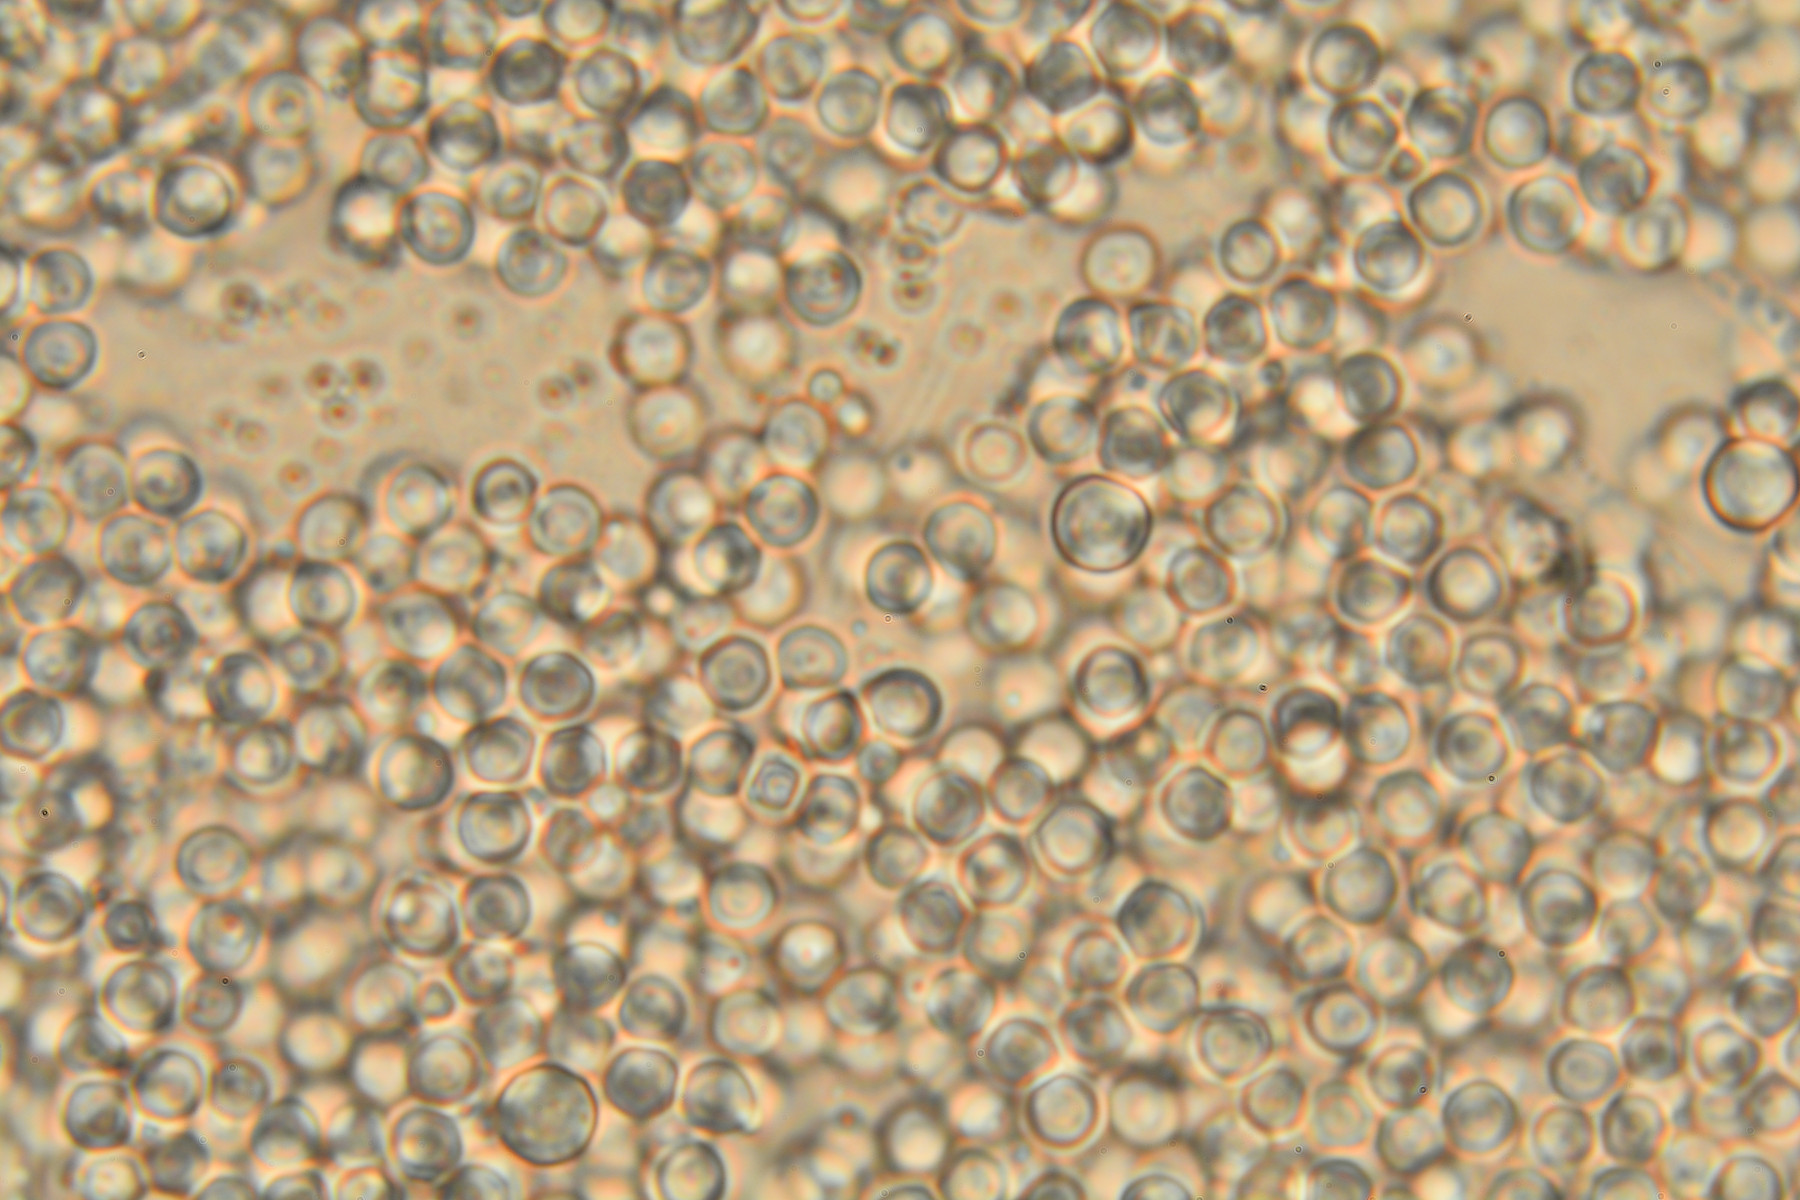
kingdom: Fungi
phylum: Ascomycota
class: Sareomycetes
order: Sareales
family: Sareaceae
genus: Sarea
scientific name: Sarea resinae
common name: orangegul harpiksskive
